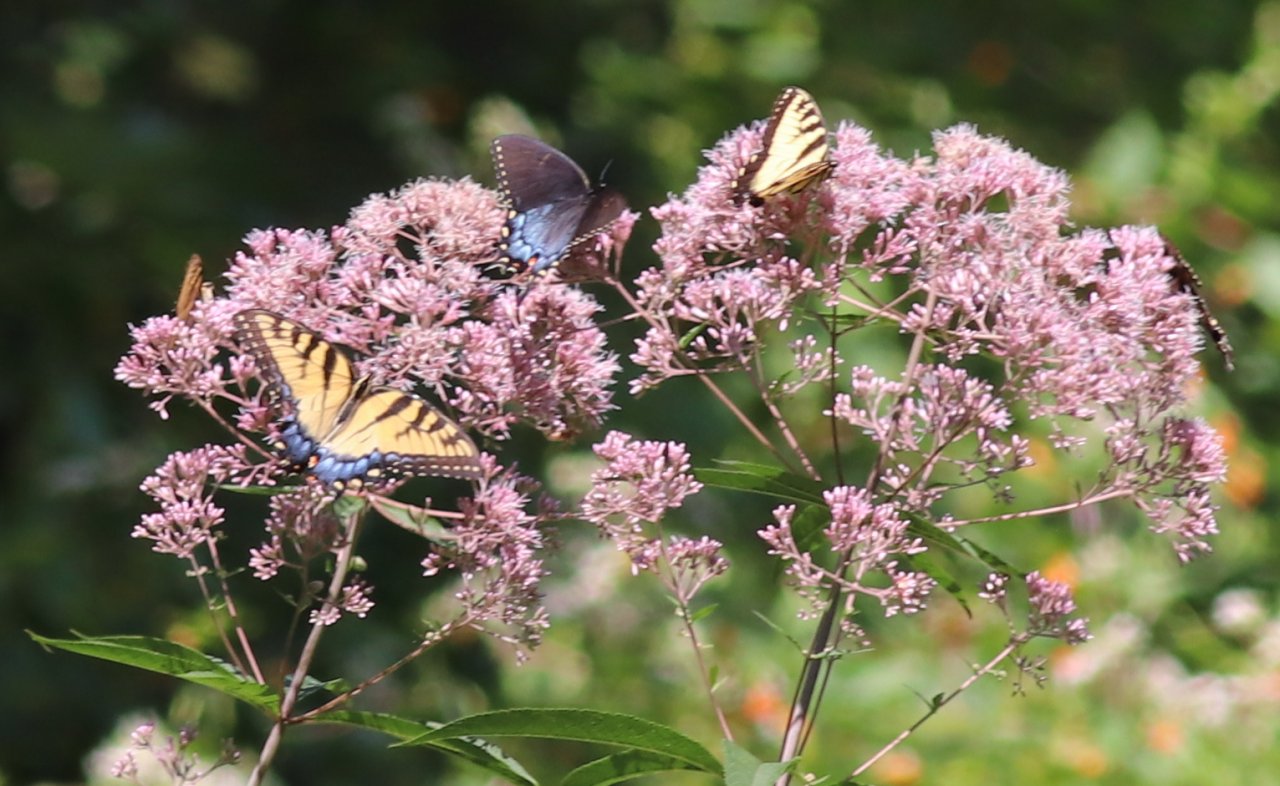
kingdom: Animalia
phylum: Arthropoda
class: Insecta
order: Lepidoptera
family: Papilionidae
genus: Pterourus
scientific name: Pterourus glaucus
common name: Eastern Tiger Swallowtail
